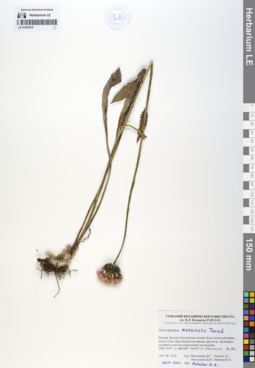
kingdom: Plantae
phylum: Tracheophyta
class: Magnoliopsida
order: Asterales
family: Asteraceae
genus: Klasea
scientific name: Klasea marginata
